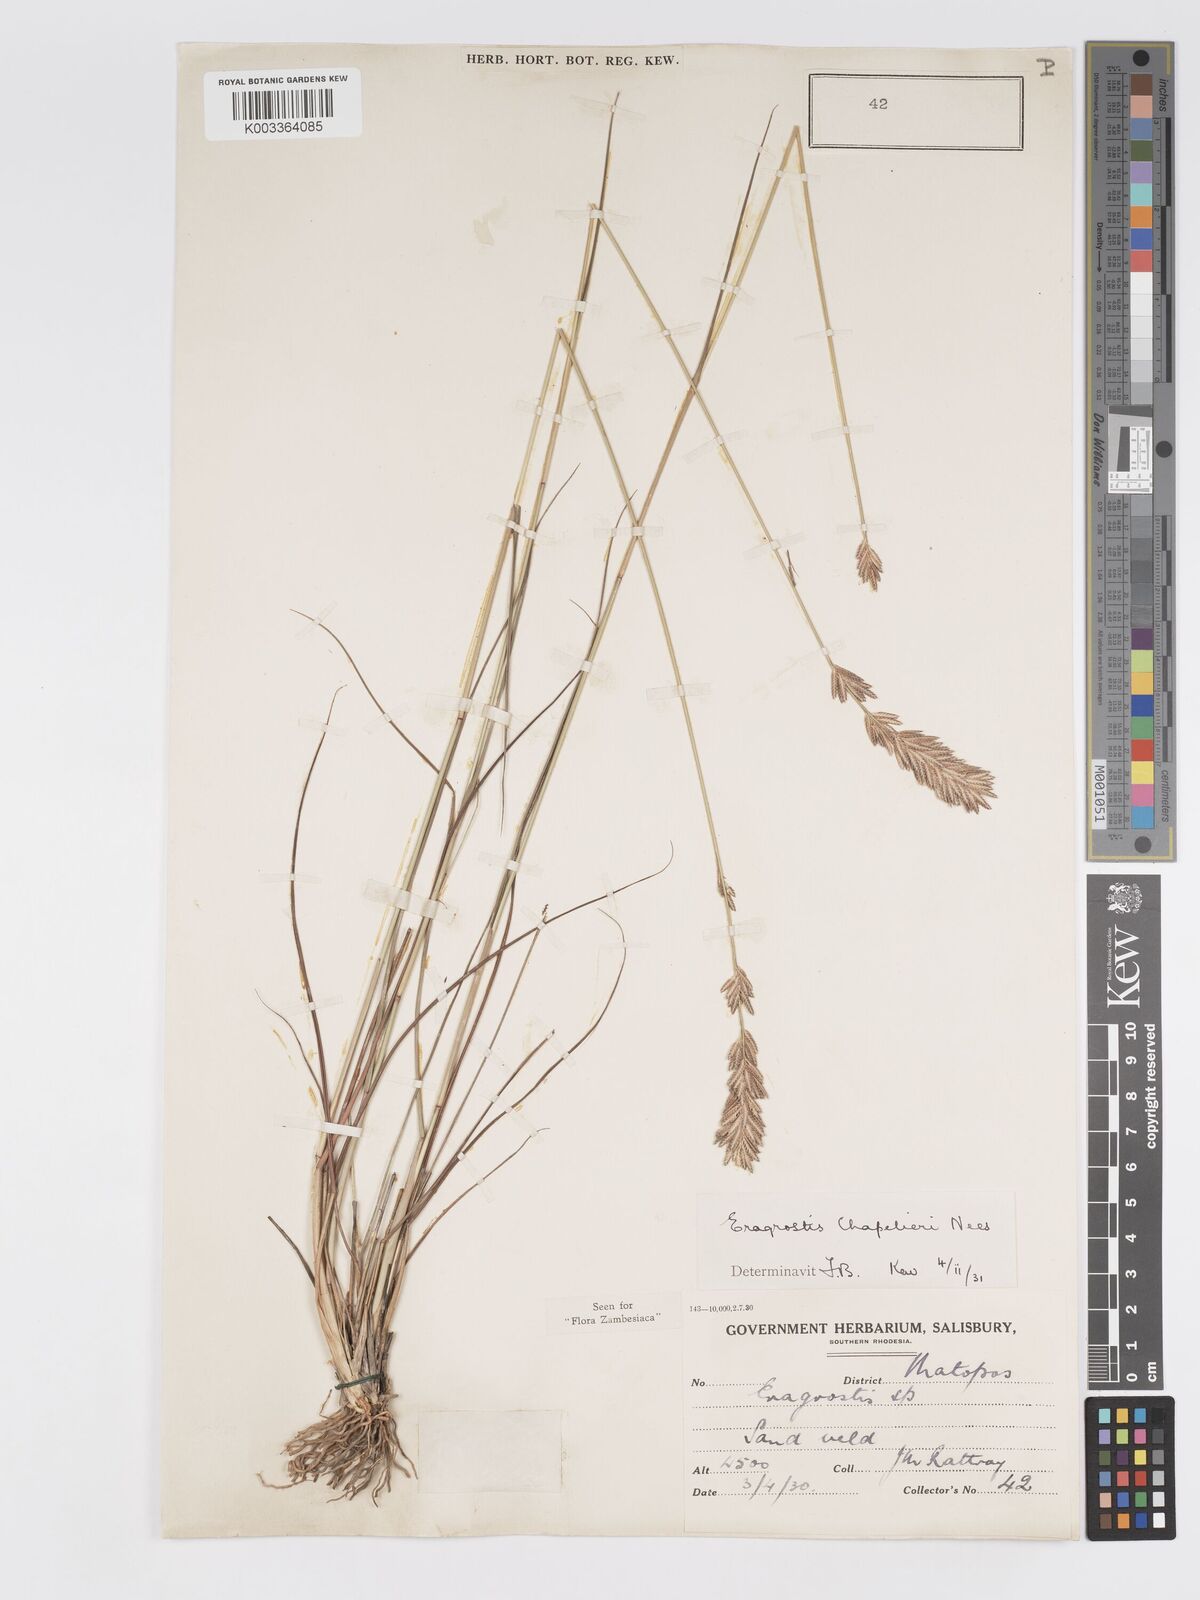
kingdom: Plantae
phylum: Tracheophyta
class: Liliopsida
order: Poales
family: Poaceae
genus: Eragrostis
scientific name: Eragrostis chapelieri
